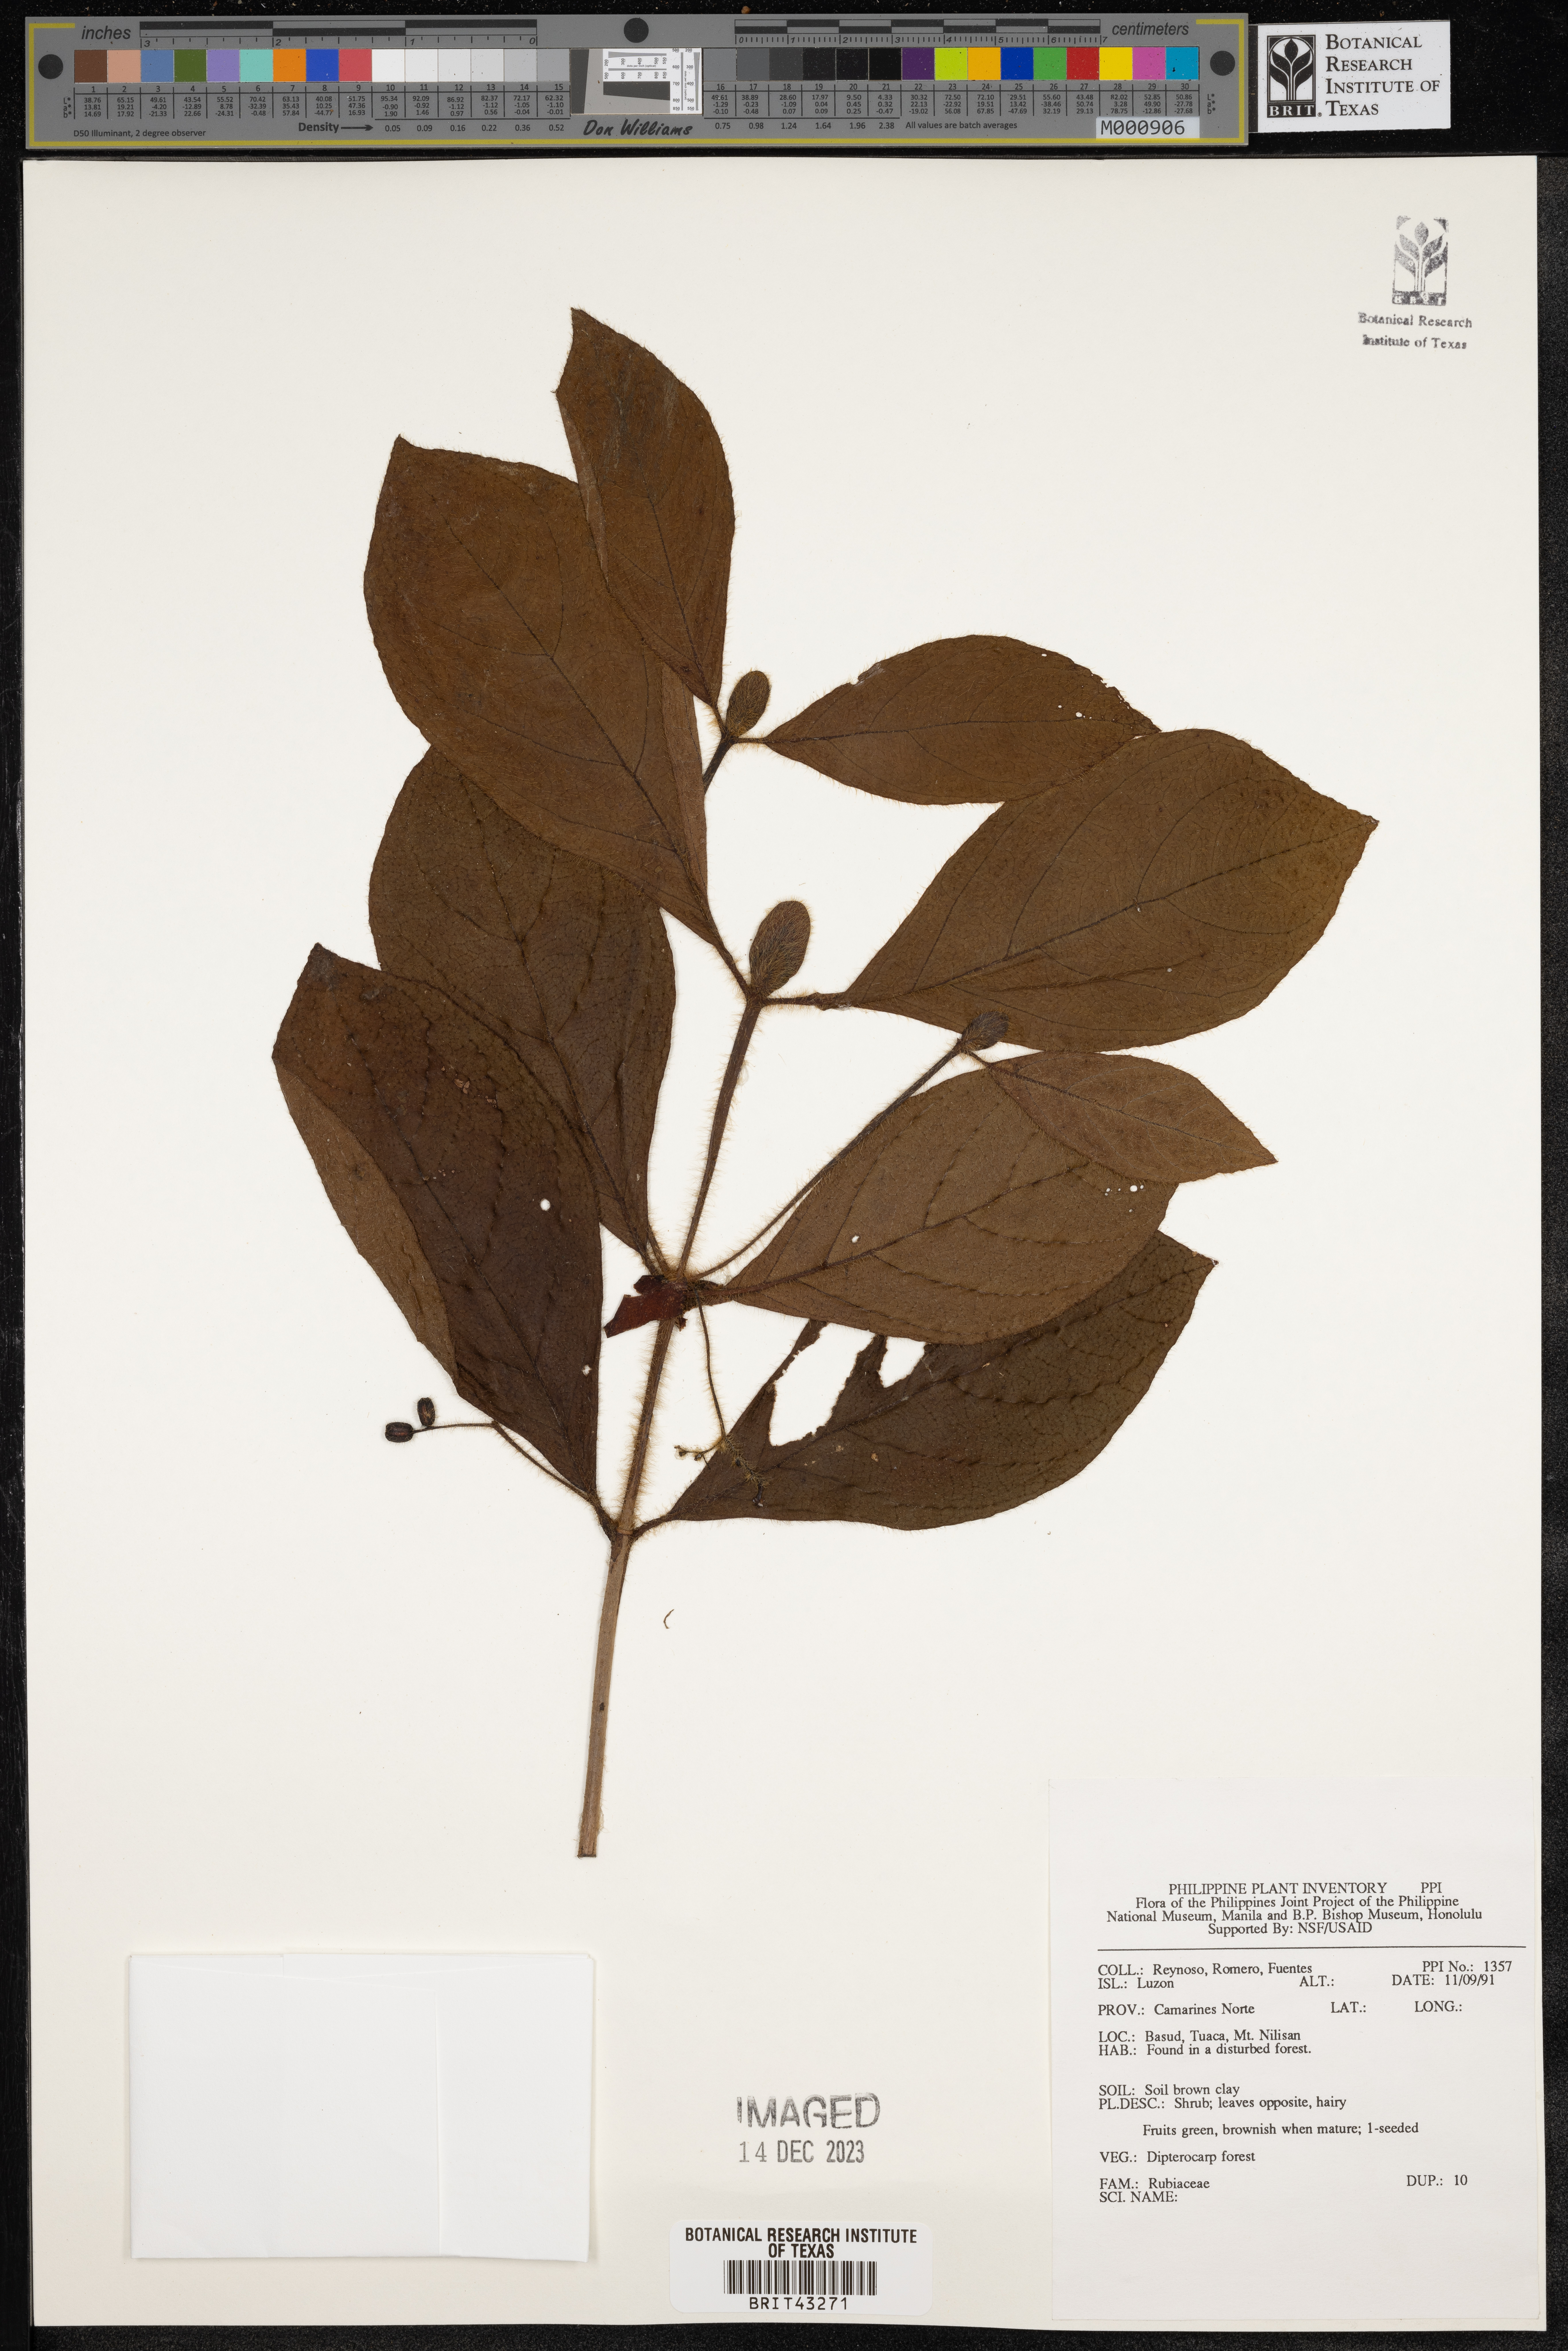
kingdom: Plantae
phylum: Tracheophyta
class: Magnoliopsida
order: Gentianales
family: Rubiaceae
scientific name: Rubiaceae
